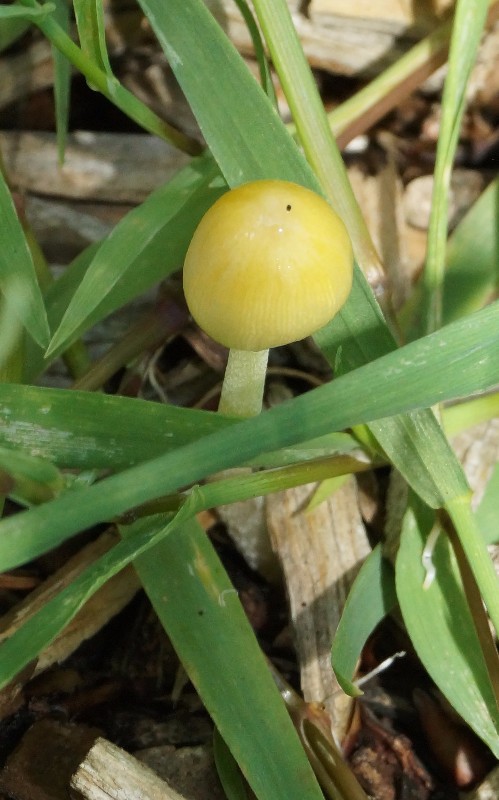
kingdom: Fungi
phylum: Basidiomycota
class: Agaricomycetes
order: Agaricales
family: Bolbitiaceae
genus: Bolbitius
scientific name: Bolbitius titubans
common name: almindelig gulhat
